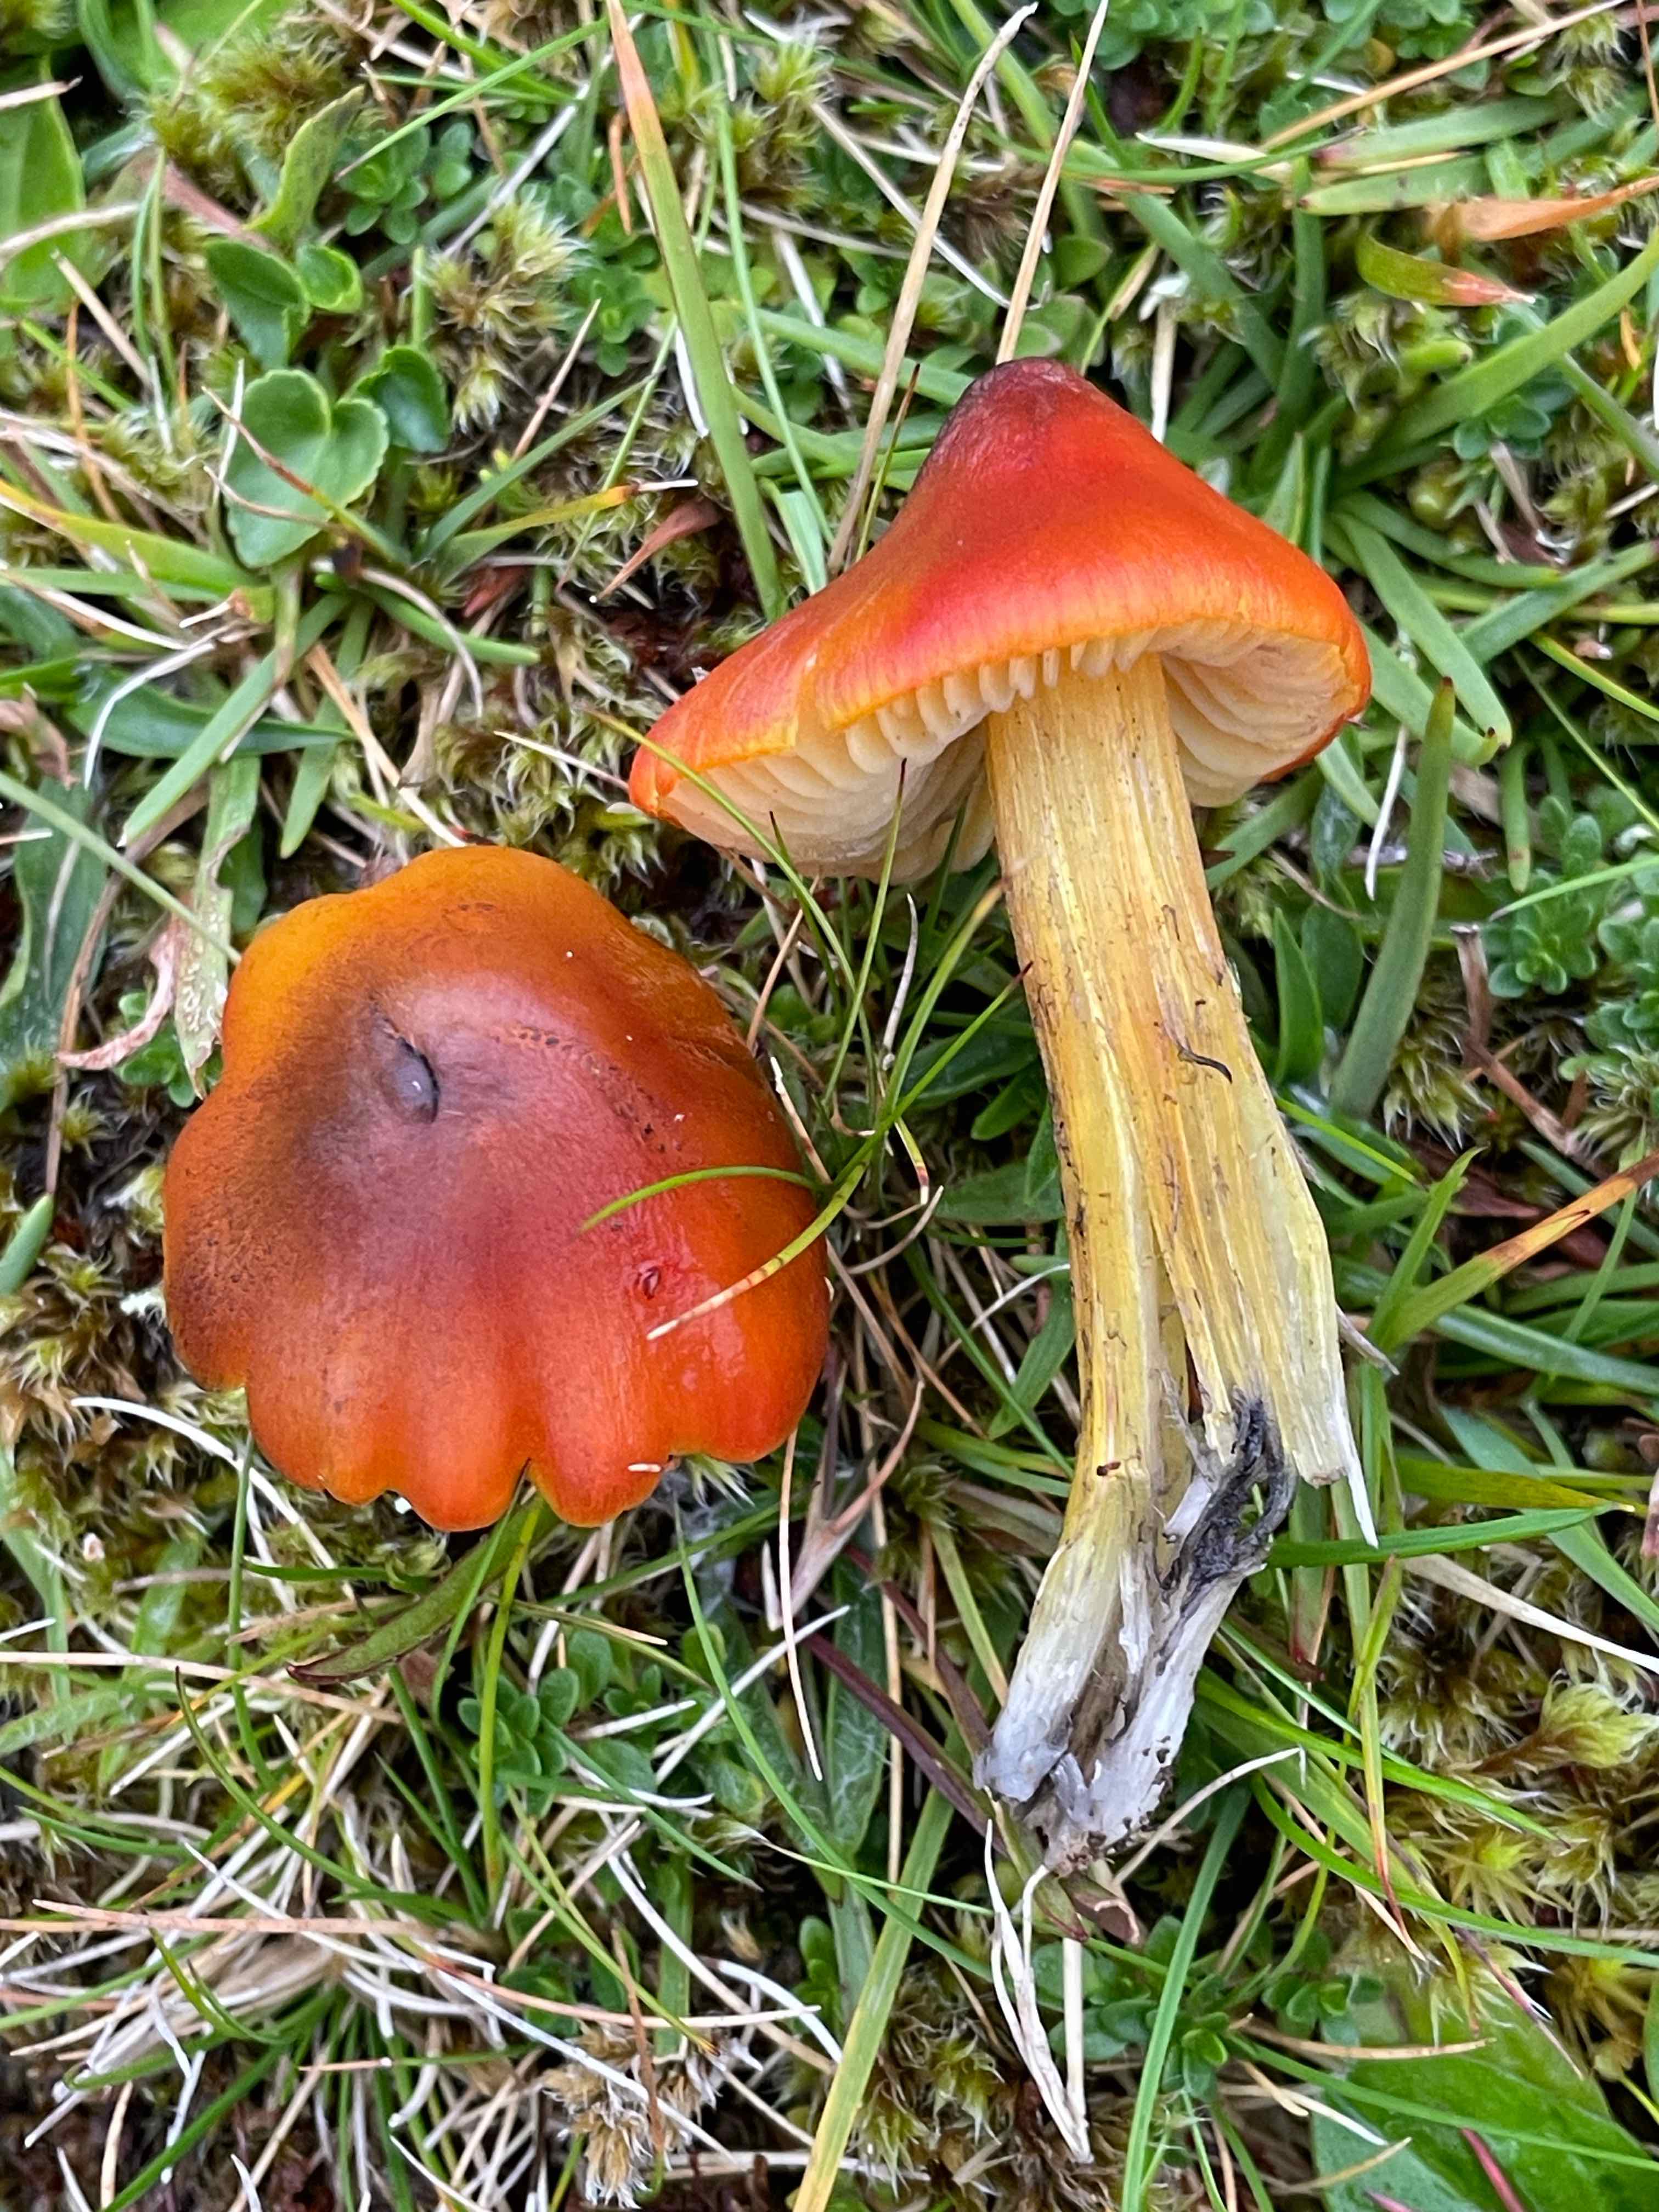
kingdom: Fungi
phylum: Basidiomycota
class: Agaricomycetes
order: Agaricales
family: Hygrophoraceae
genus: Hygrocybe
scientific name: Hygrocybe conica
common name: kegle-vokshat
